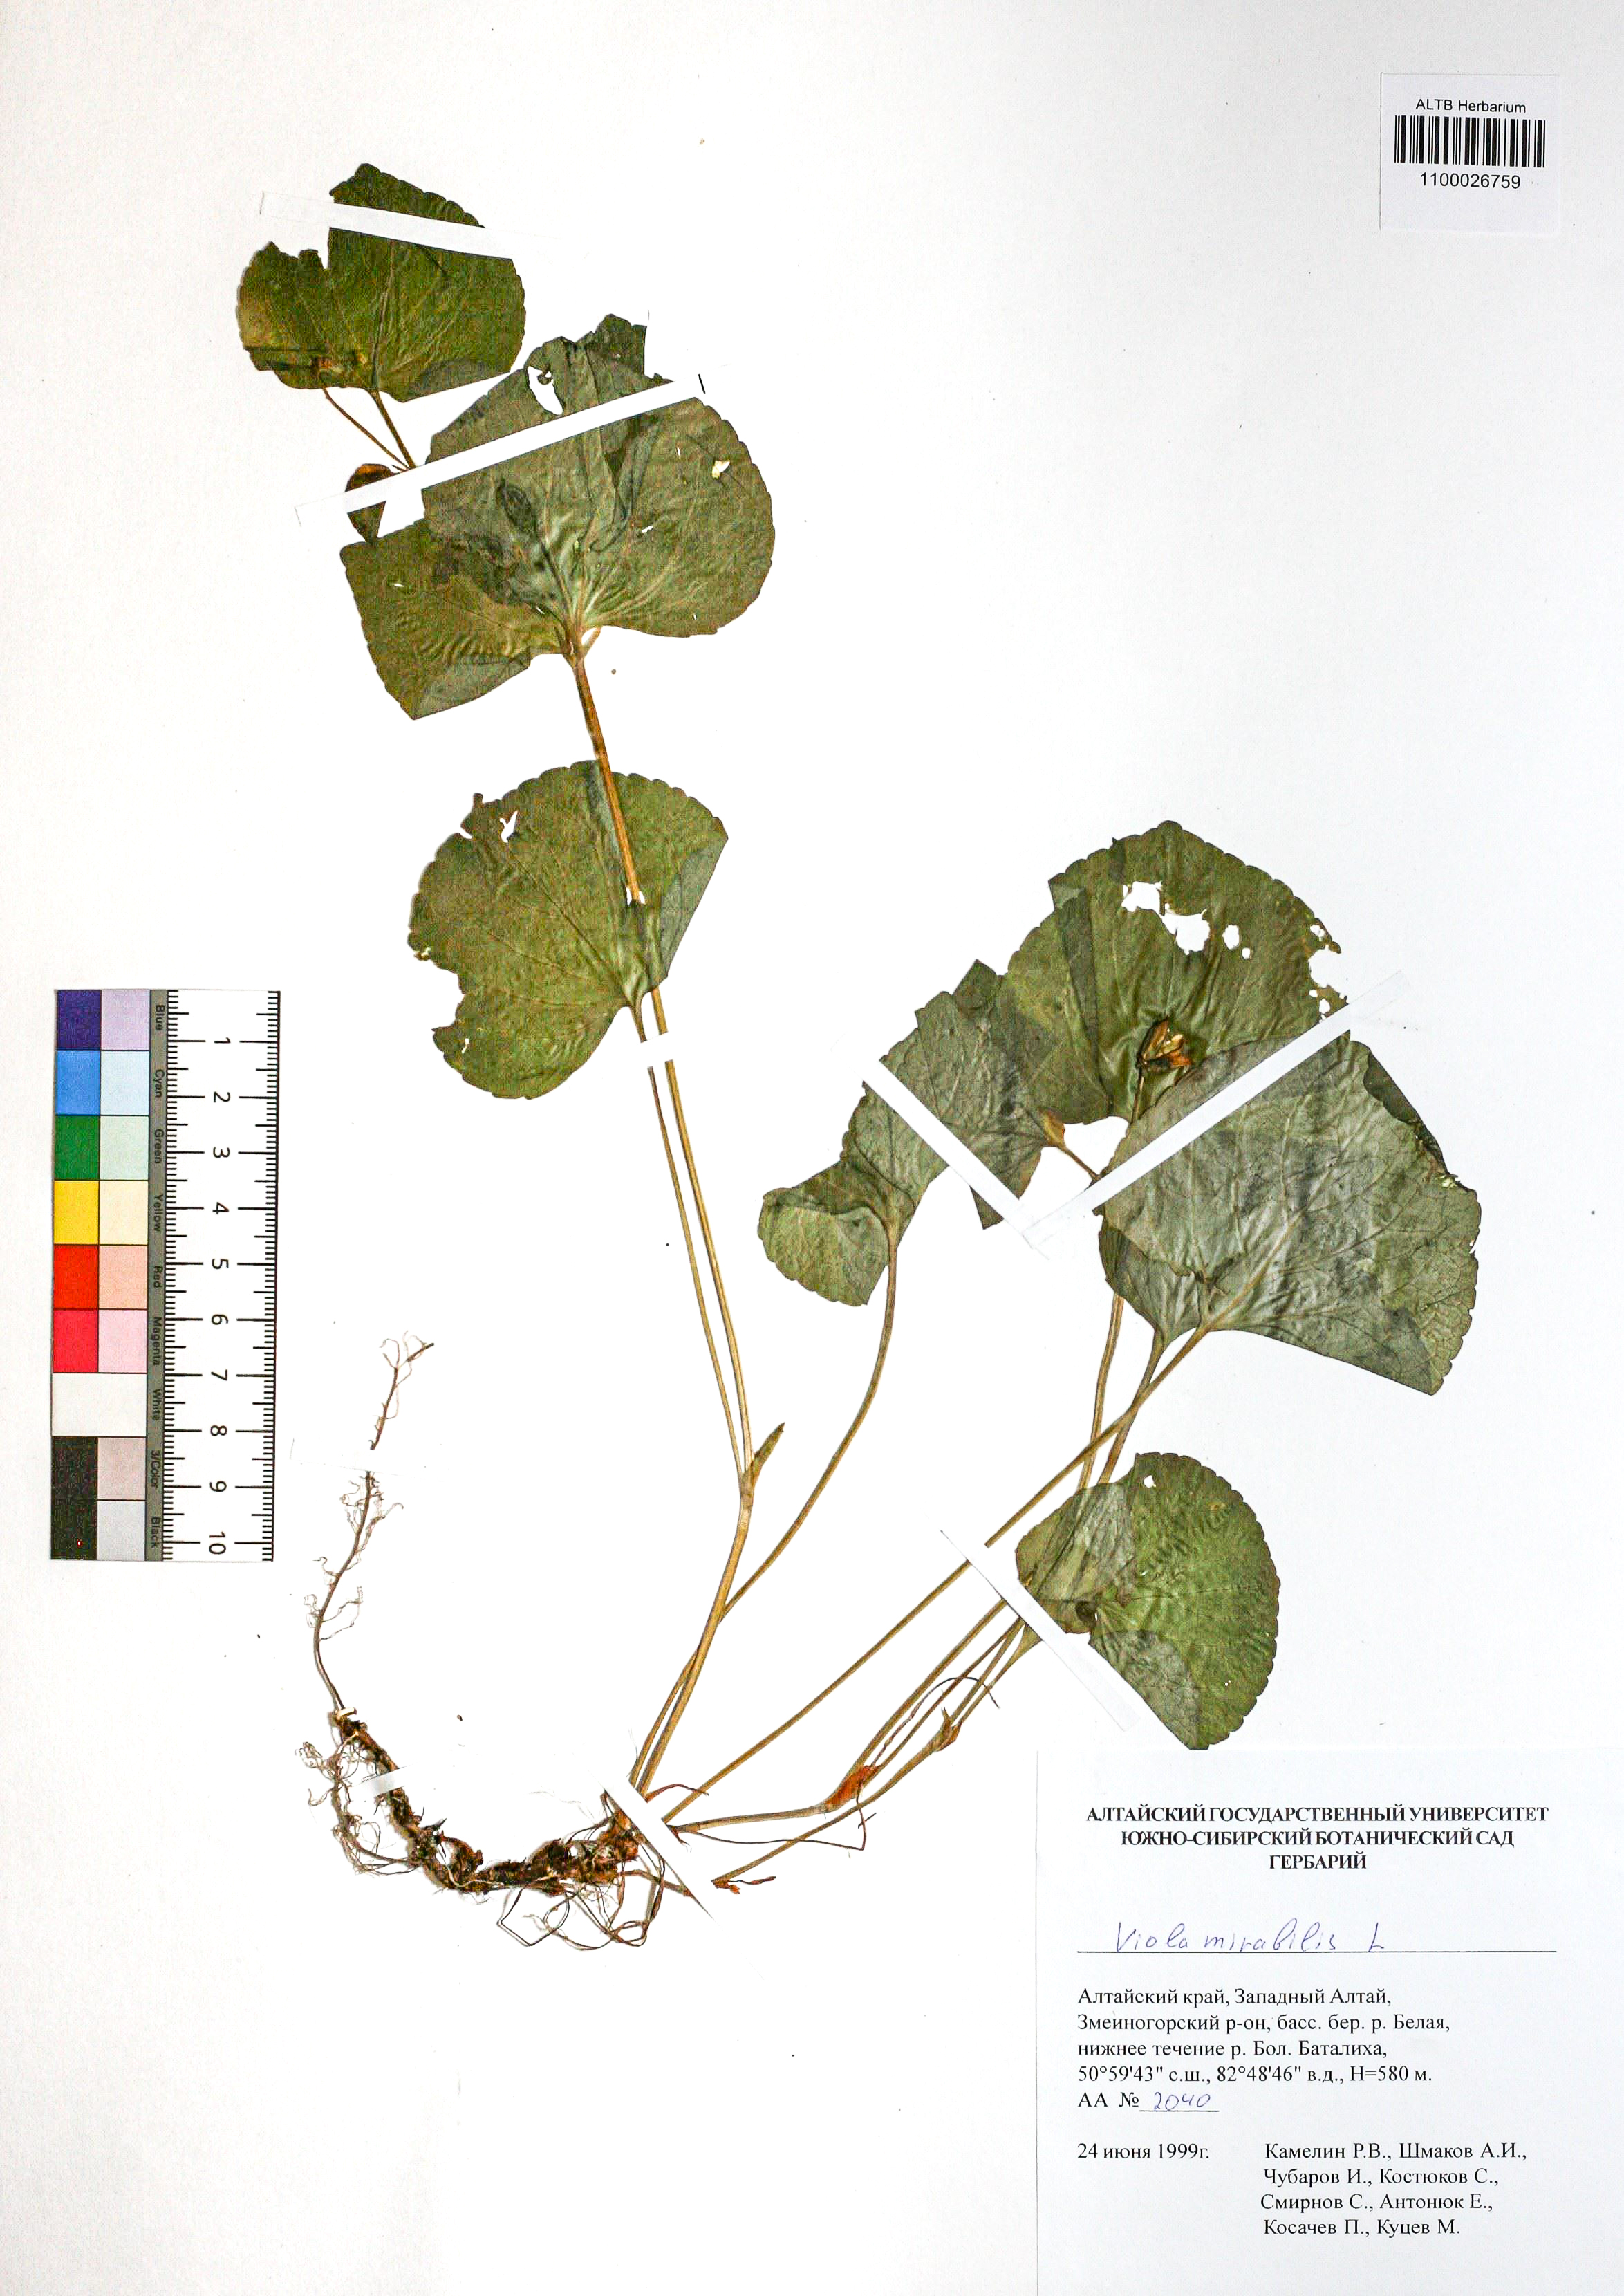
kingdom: Plantae
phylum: Tracheophyta
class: Magnoliopsida
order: Malpighiales
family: Violaceae
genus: Viola
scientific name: Viola mirabilis
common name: Wonder violet
